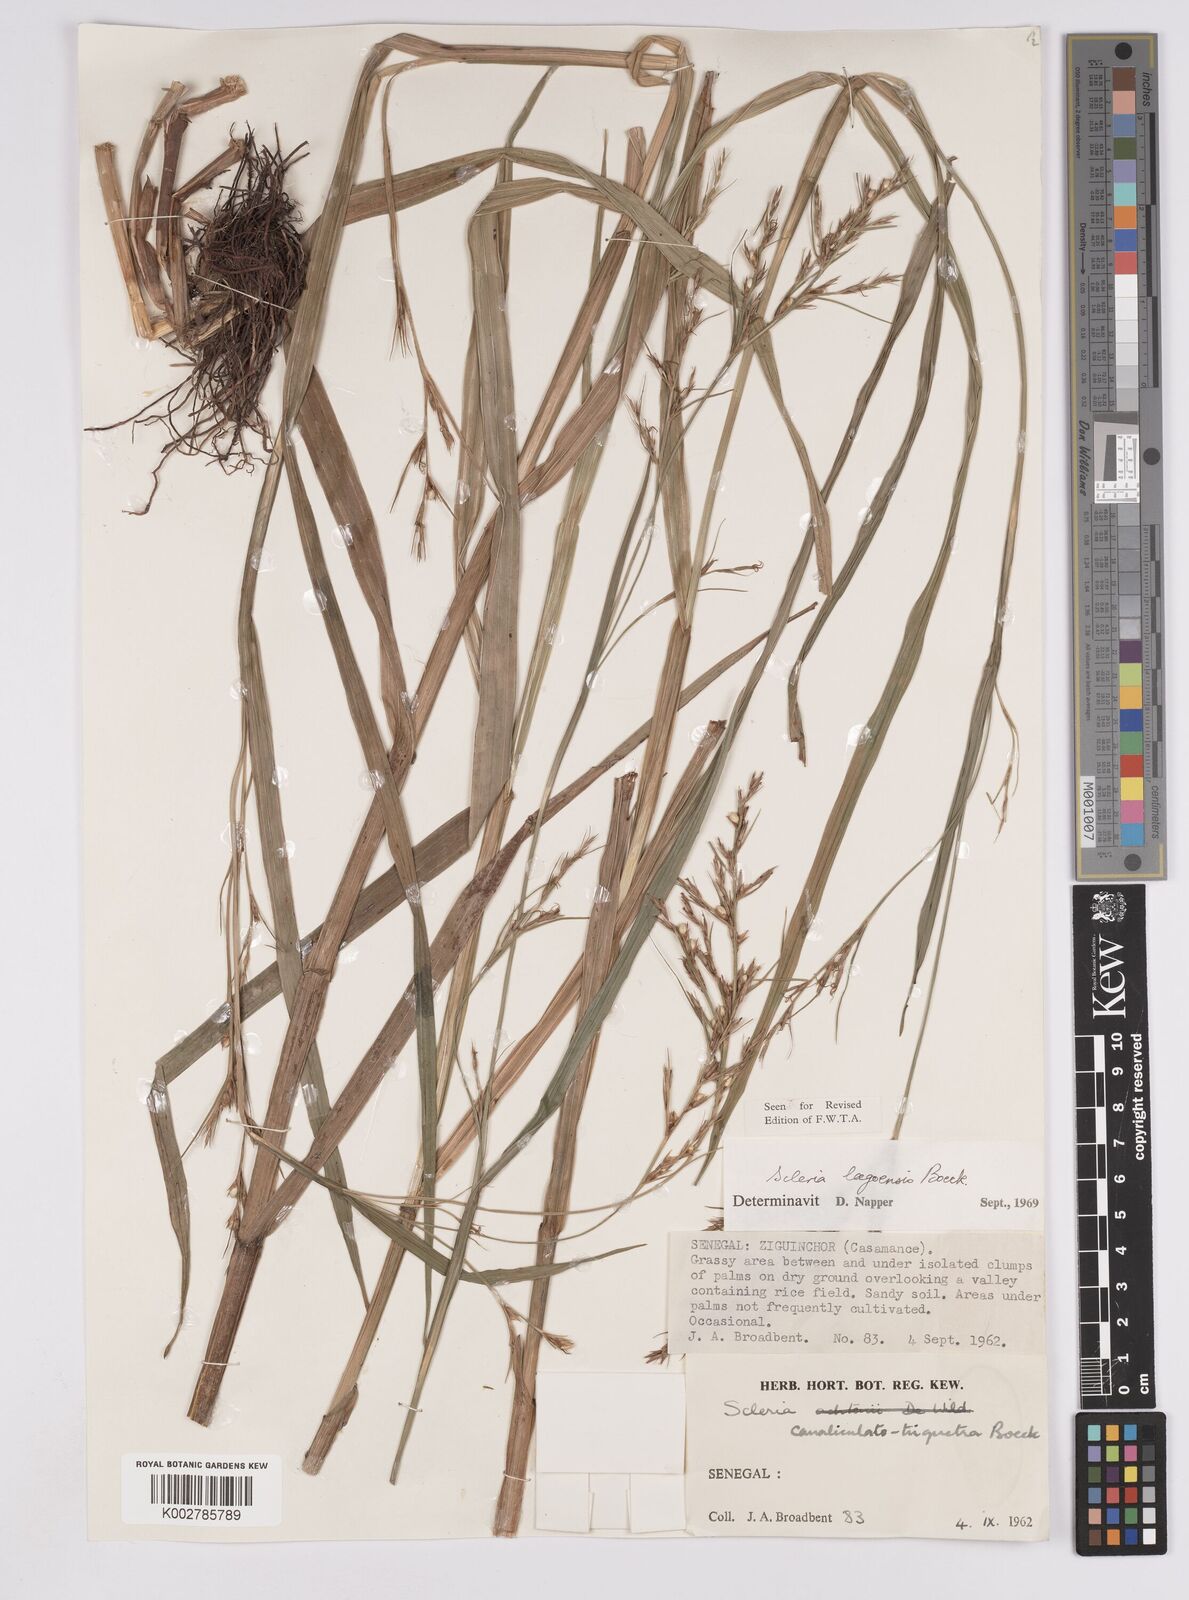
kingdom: Plantae
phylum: Tracheophyta
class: Liliopsida
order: Poales
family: Cyperaceae
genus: Scleria
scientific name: Scleria lagoensis
